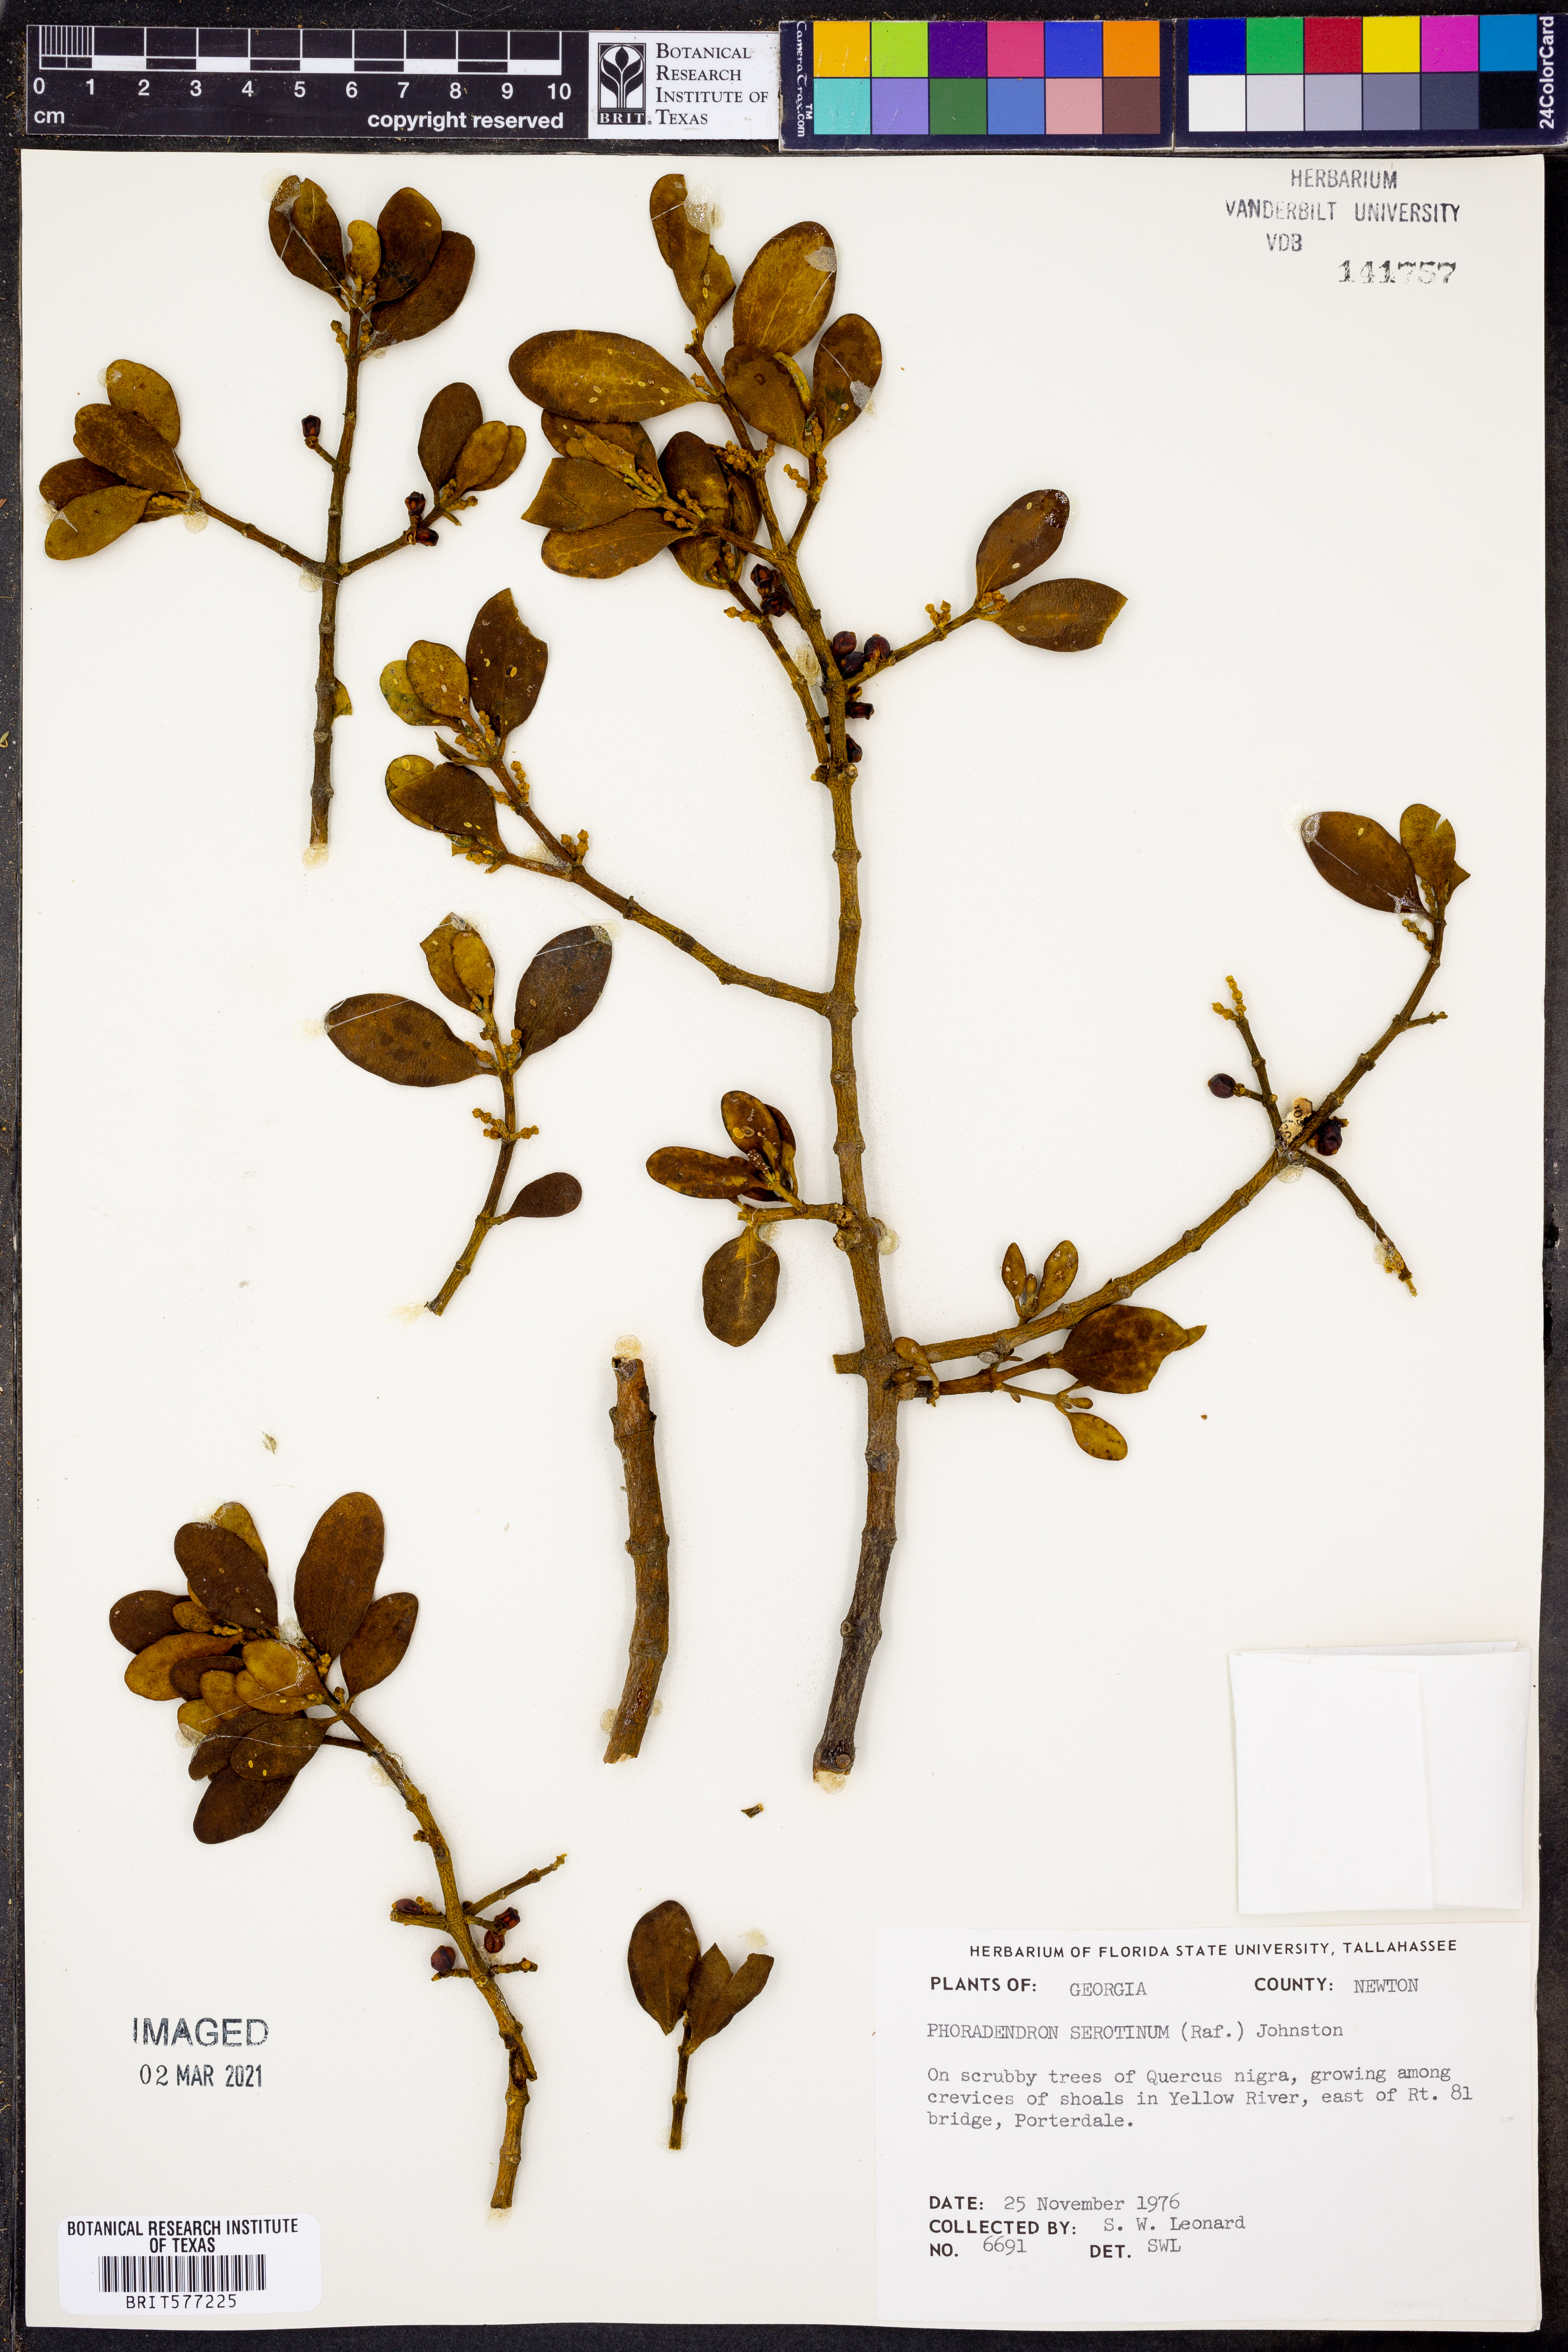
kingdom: Plantae
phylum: Tracheophyta
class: Magnoliopsida
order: Santalales
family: Viscaceae
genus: Phoradendron
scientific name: Phoradendron leucarpum
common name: Pacific mistletoe
